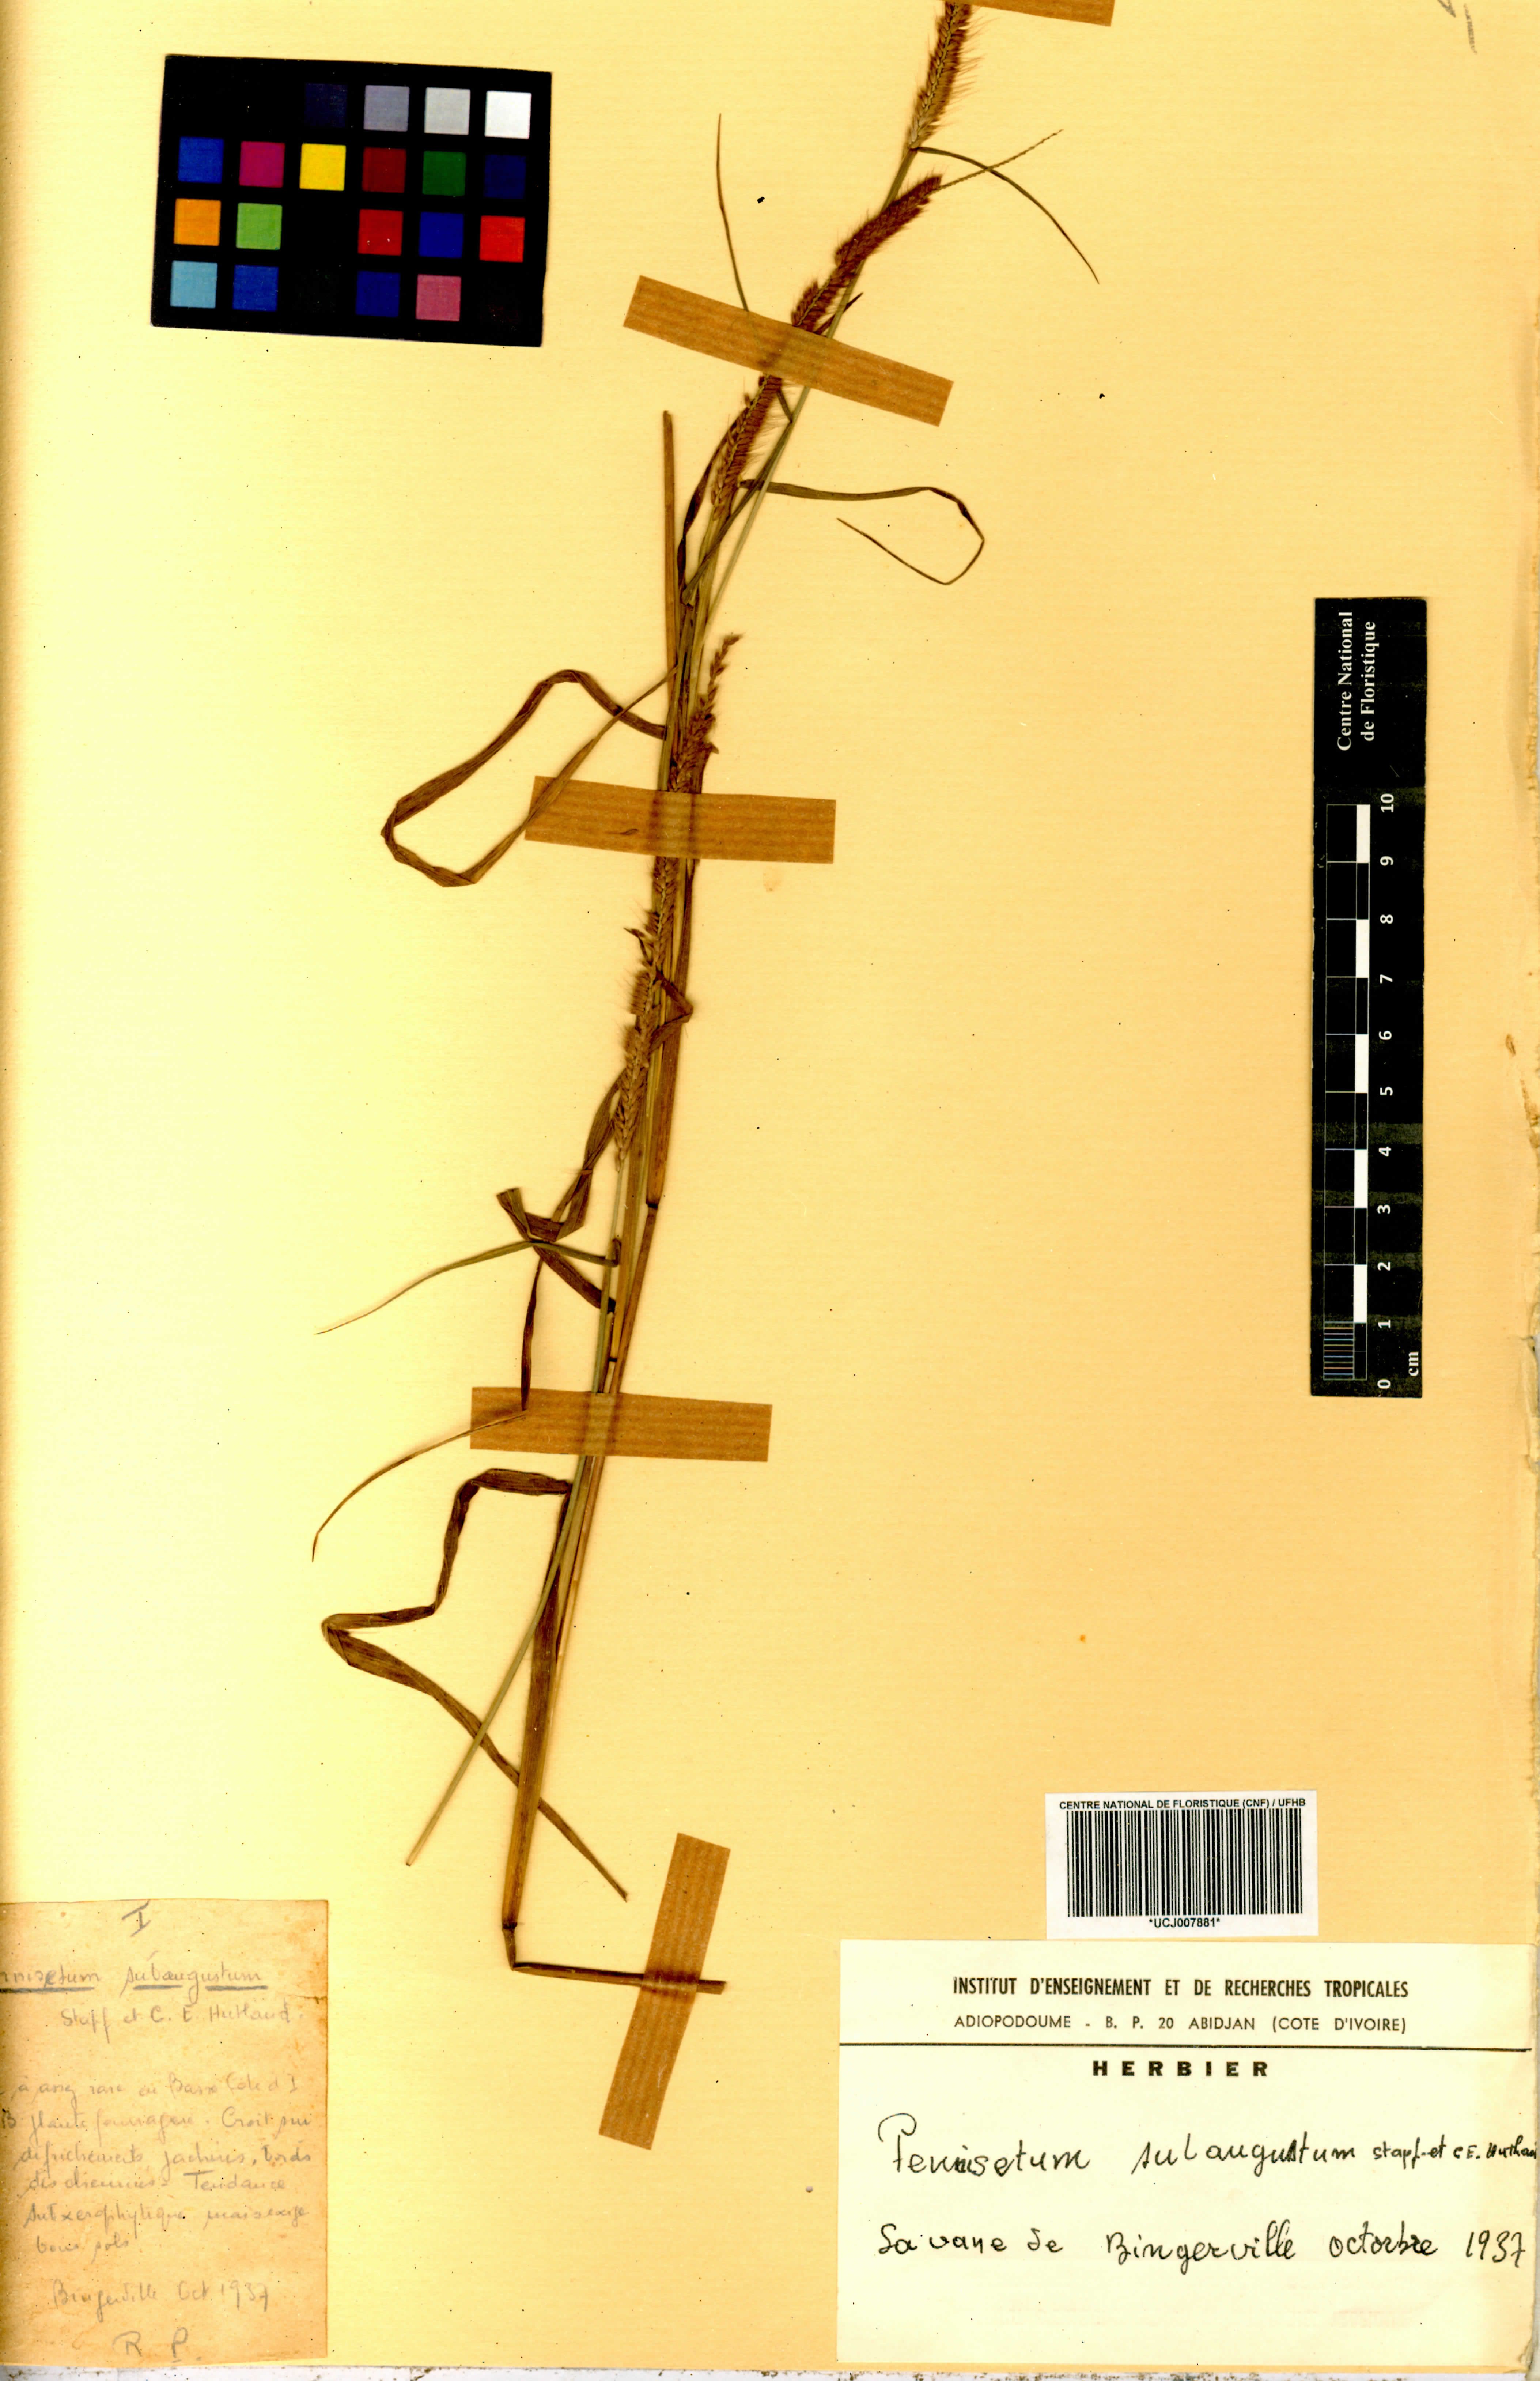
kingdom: Plantae
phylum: Tracheophyta
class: Liliopsida
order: Poales
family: Poaceae
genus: Cenchrus
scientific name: Cenchrus setosus
